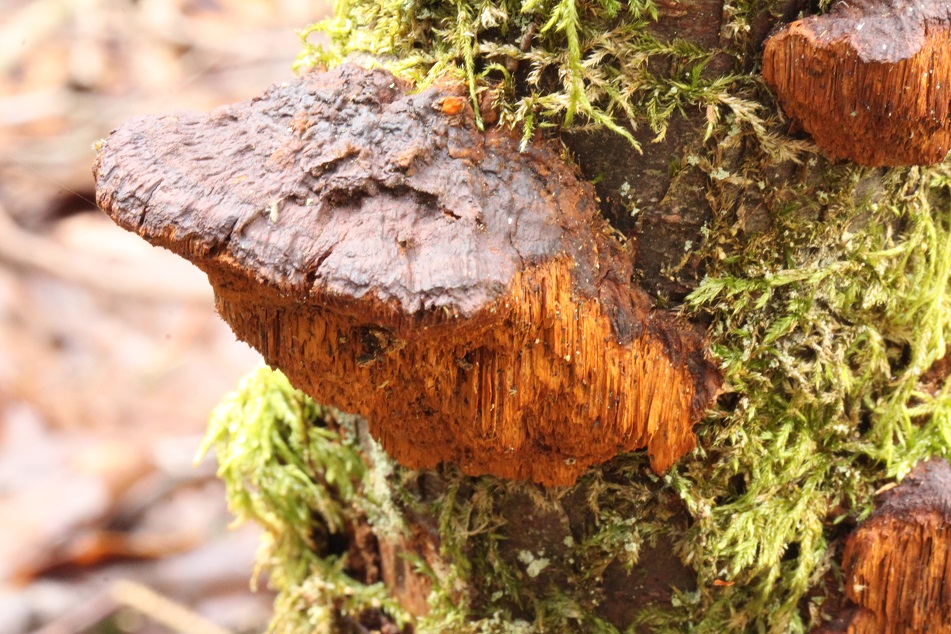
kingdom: Fungi
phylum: Basidiomycota
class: Agaricomycetes
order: Hymenochaetales
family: Hymenochaetaceae
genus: Xanthoporia
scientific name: Xanthoporia radiata
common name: elle-spejlporesvamp
